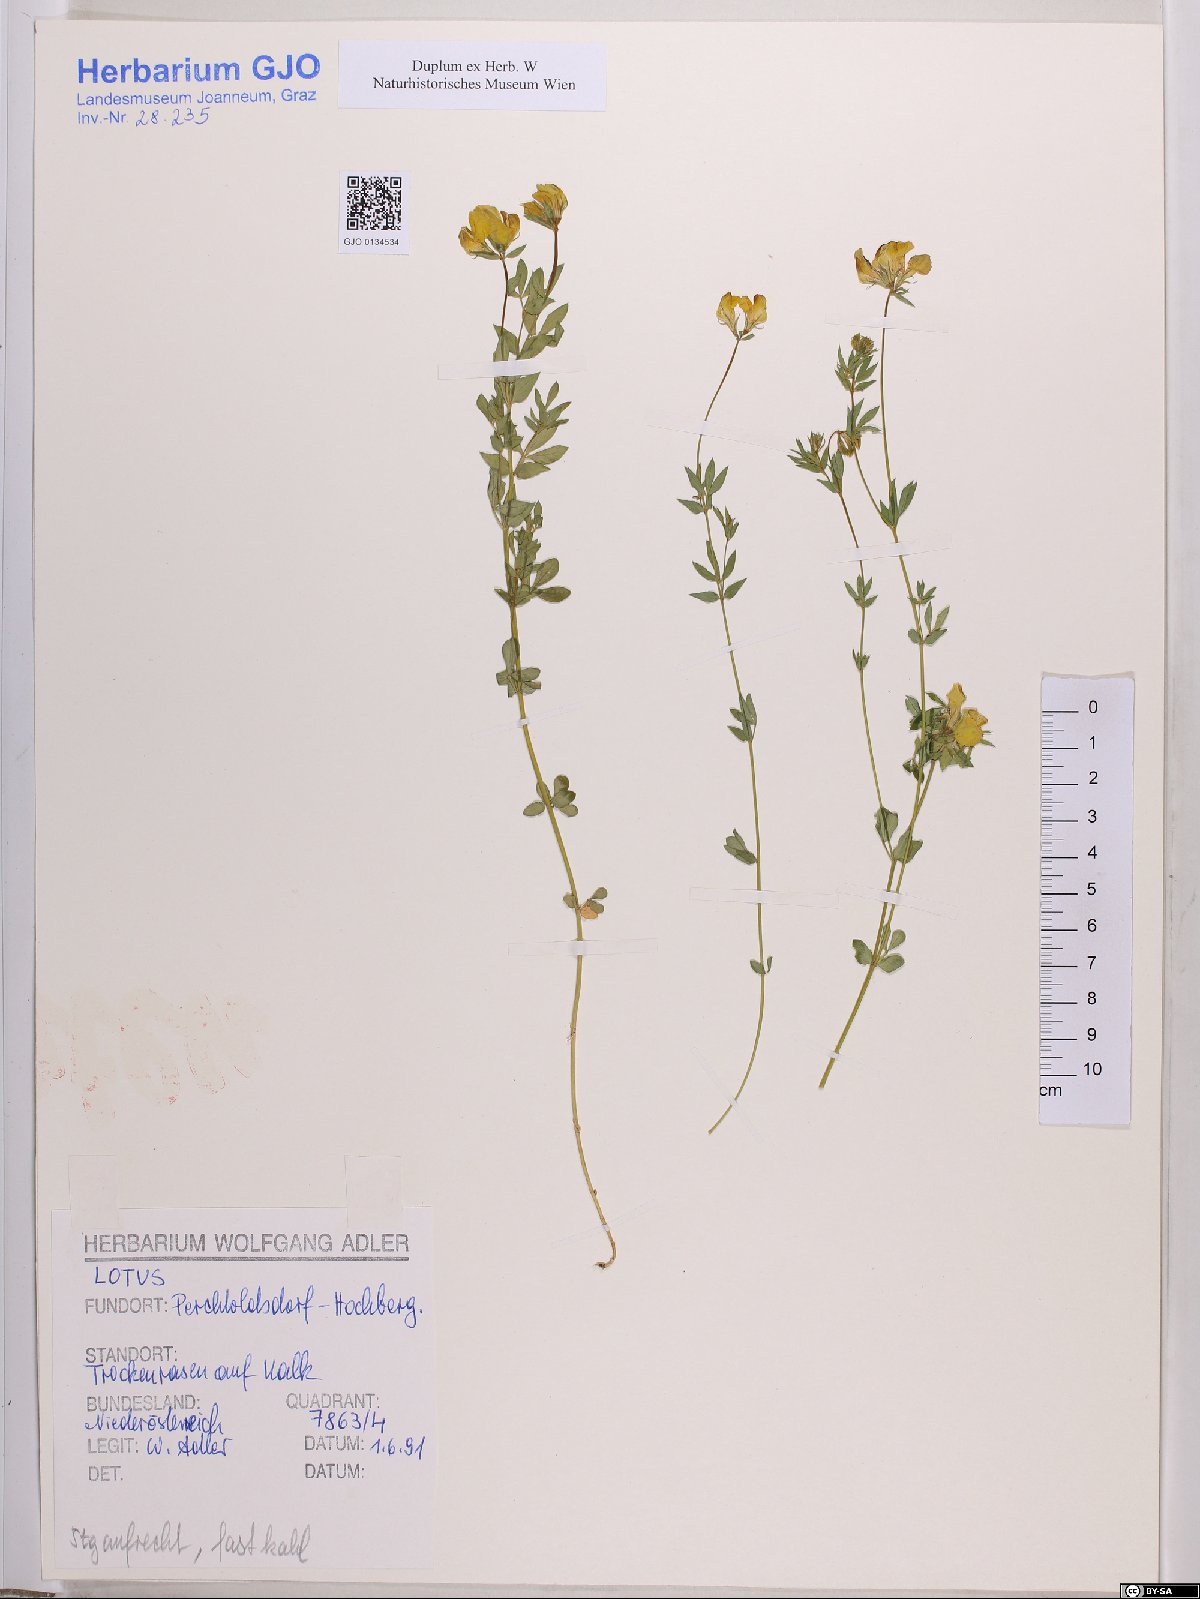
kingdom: Plantae
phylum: Tracheophyta
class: Magnoliopsida
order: Fabales
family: Fabaceae
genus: Lotus
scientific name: Lotus
